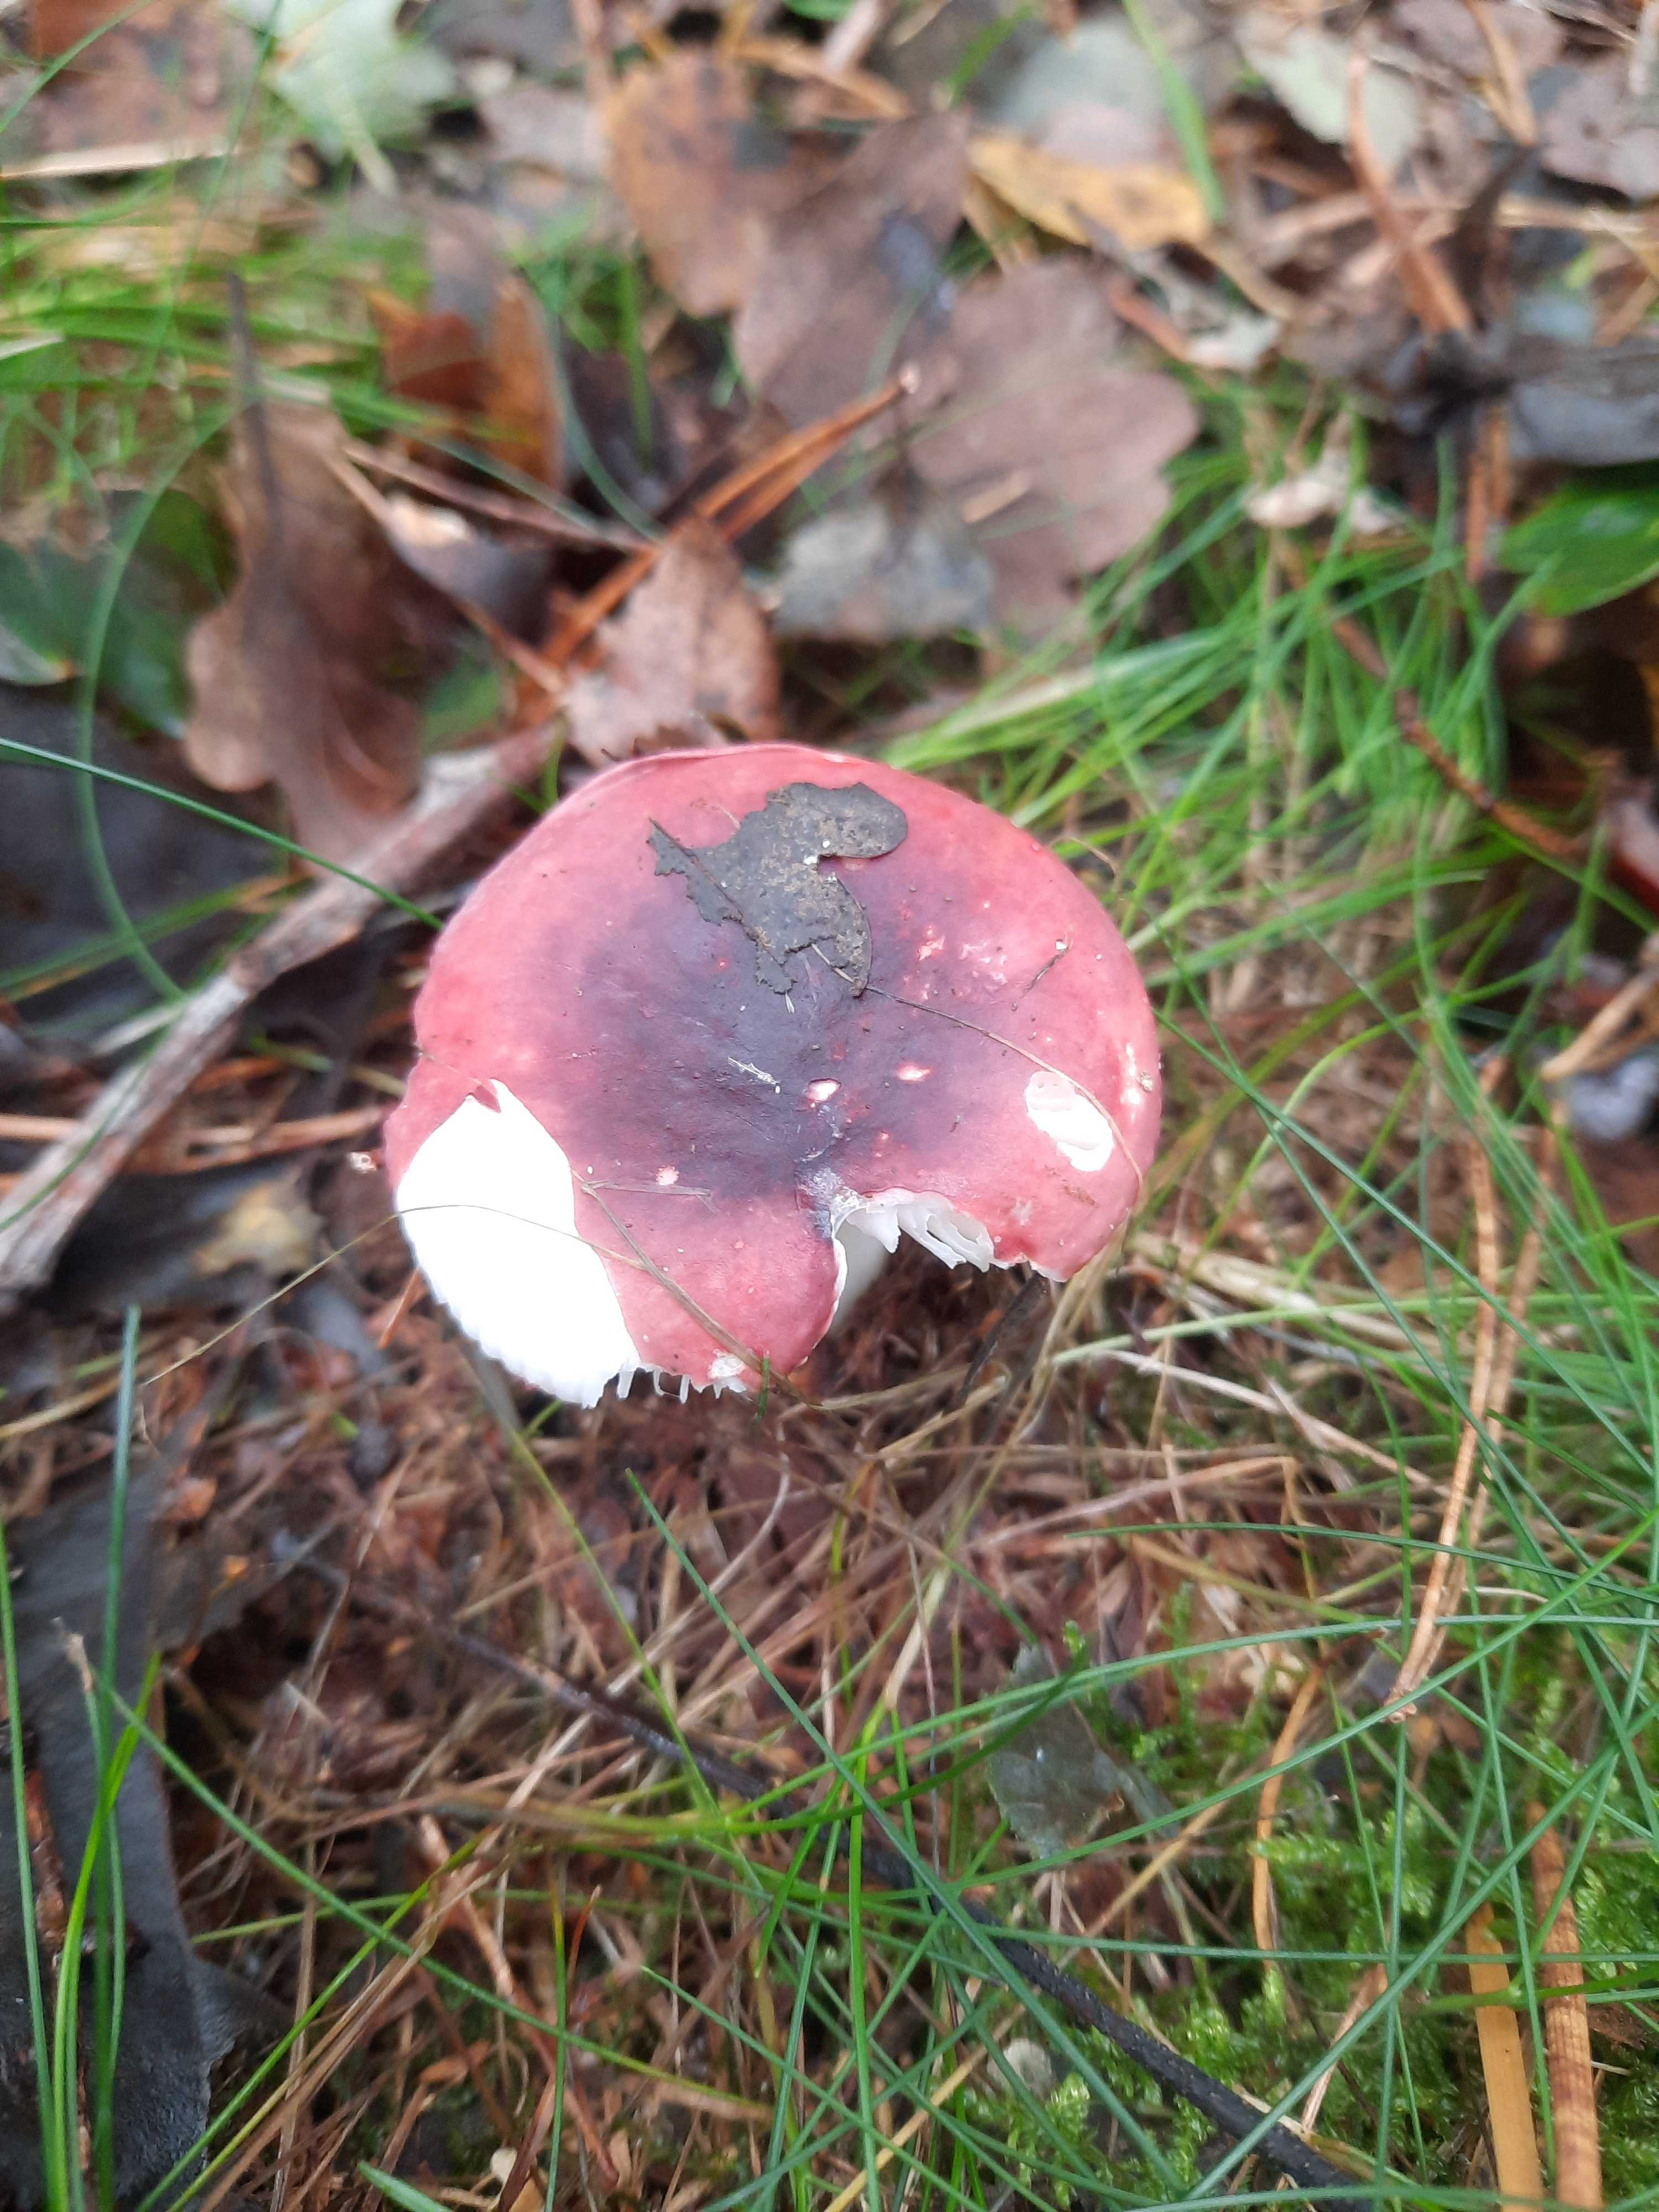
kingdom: Fungi
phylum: Basidiomycota
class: Agaricomycetes
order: Russulales
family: Russulaceae
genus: Russula
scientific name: Russula fragilis
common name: savbladet skørhat
